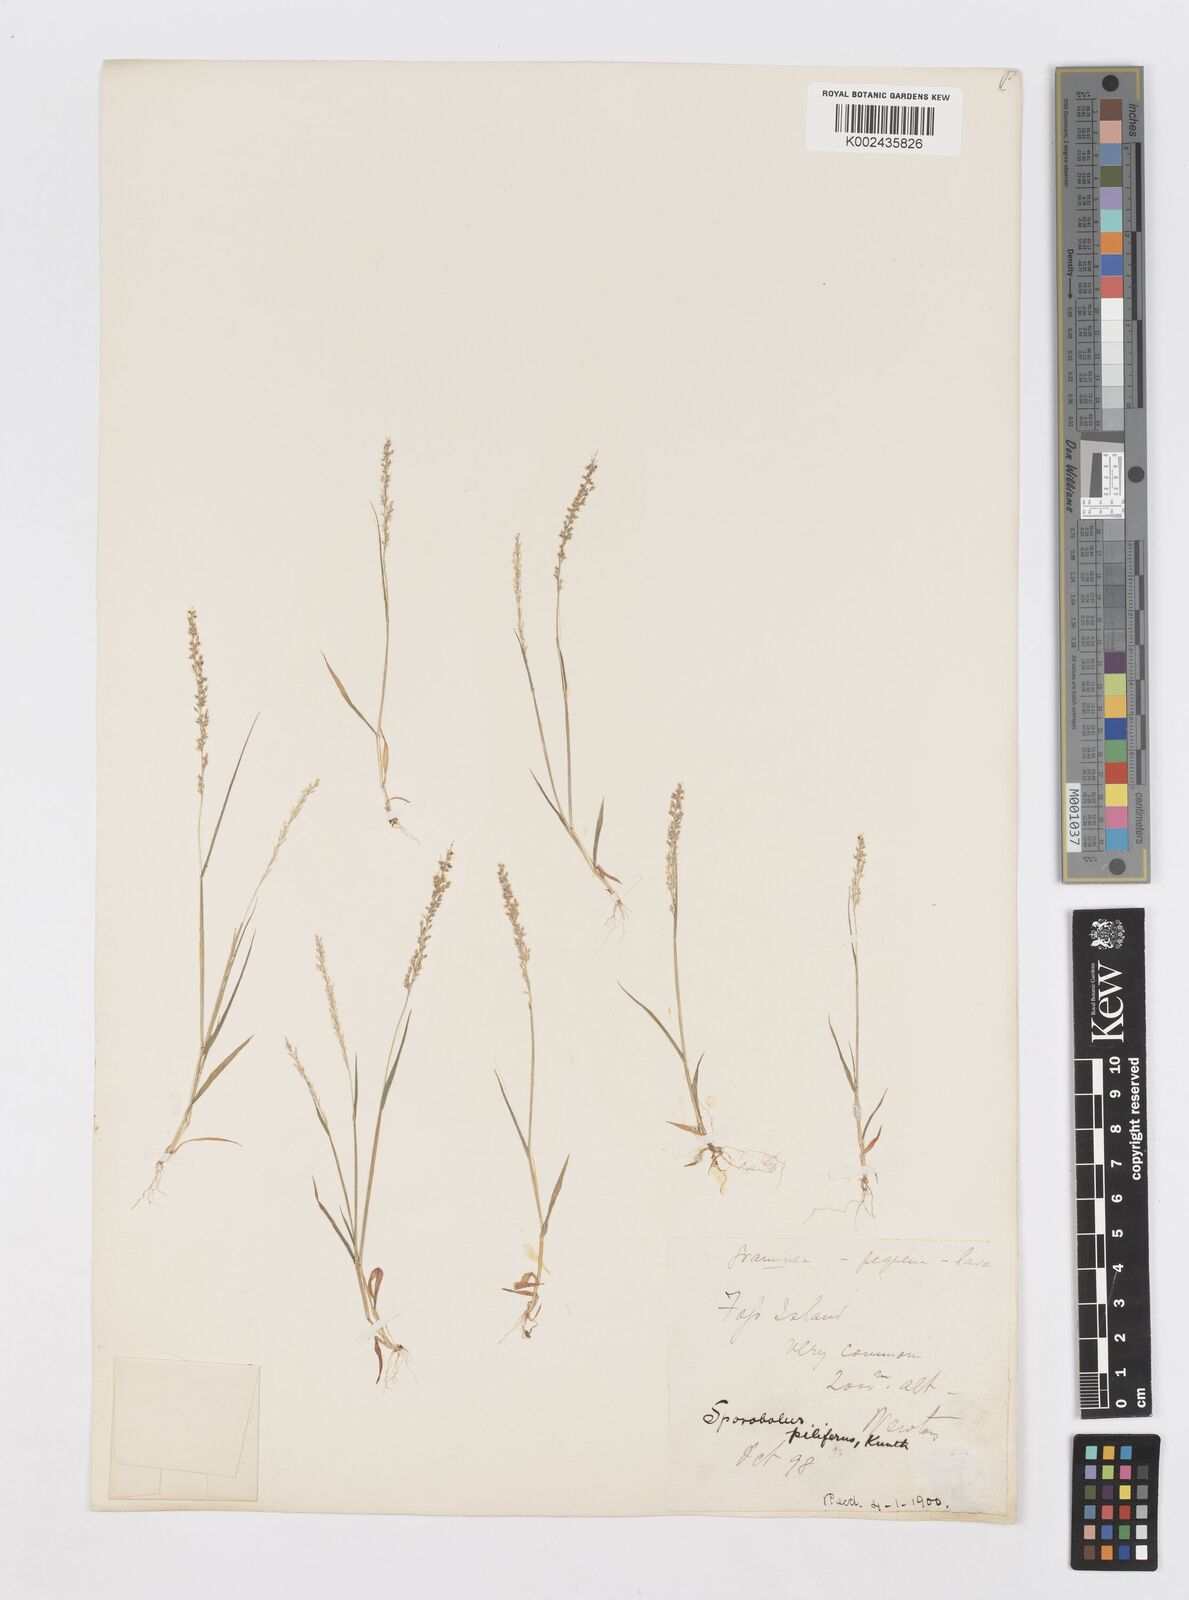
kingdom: Plantae
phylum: Tracheophyta
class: Liliopsida
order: Poales
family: Poaceae
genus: Sporobolus
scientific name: Sporobolus pilifer
